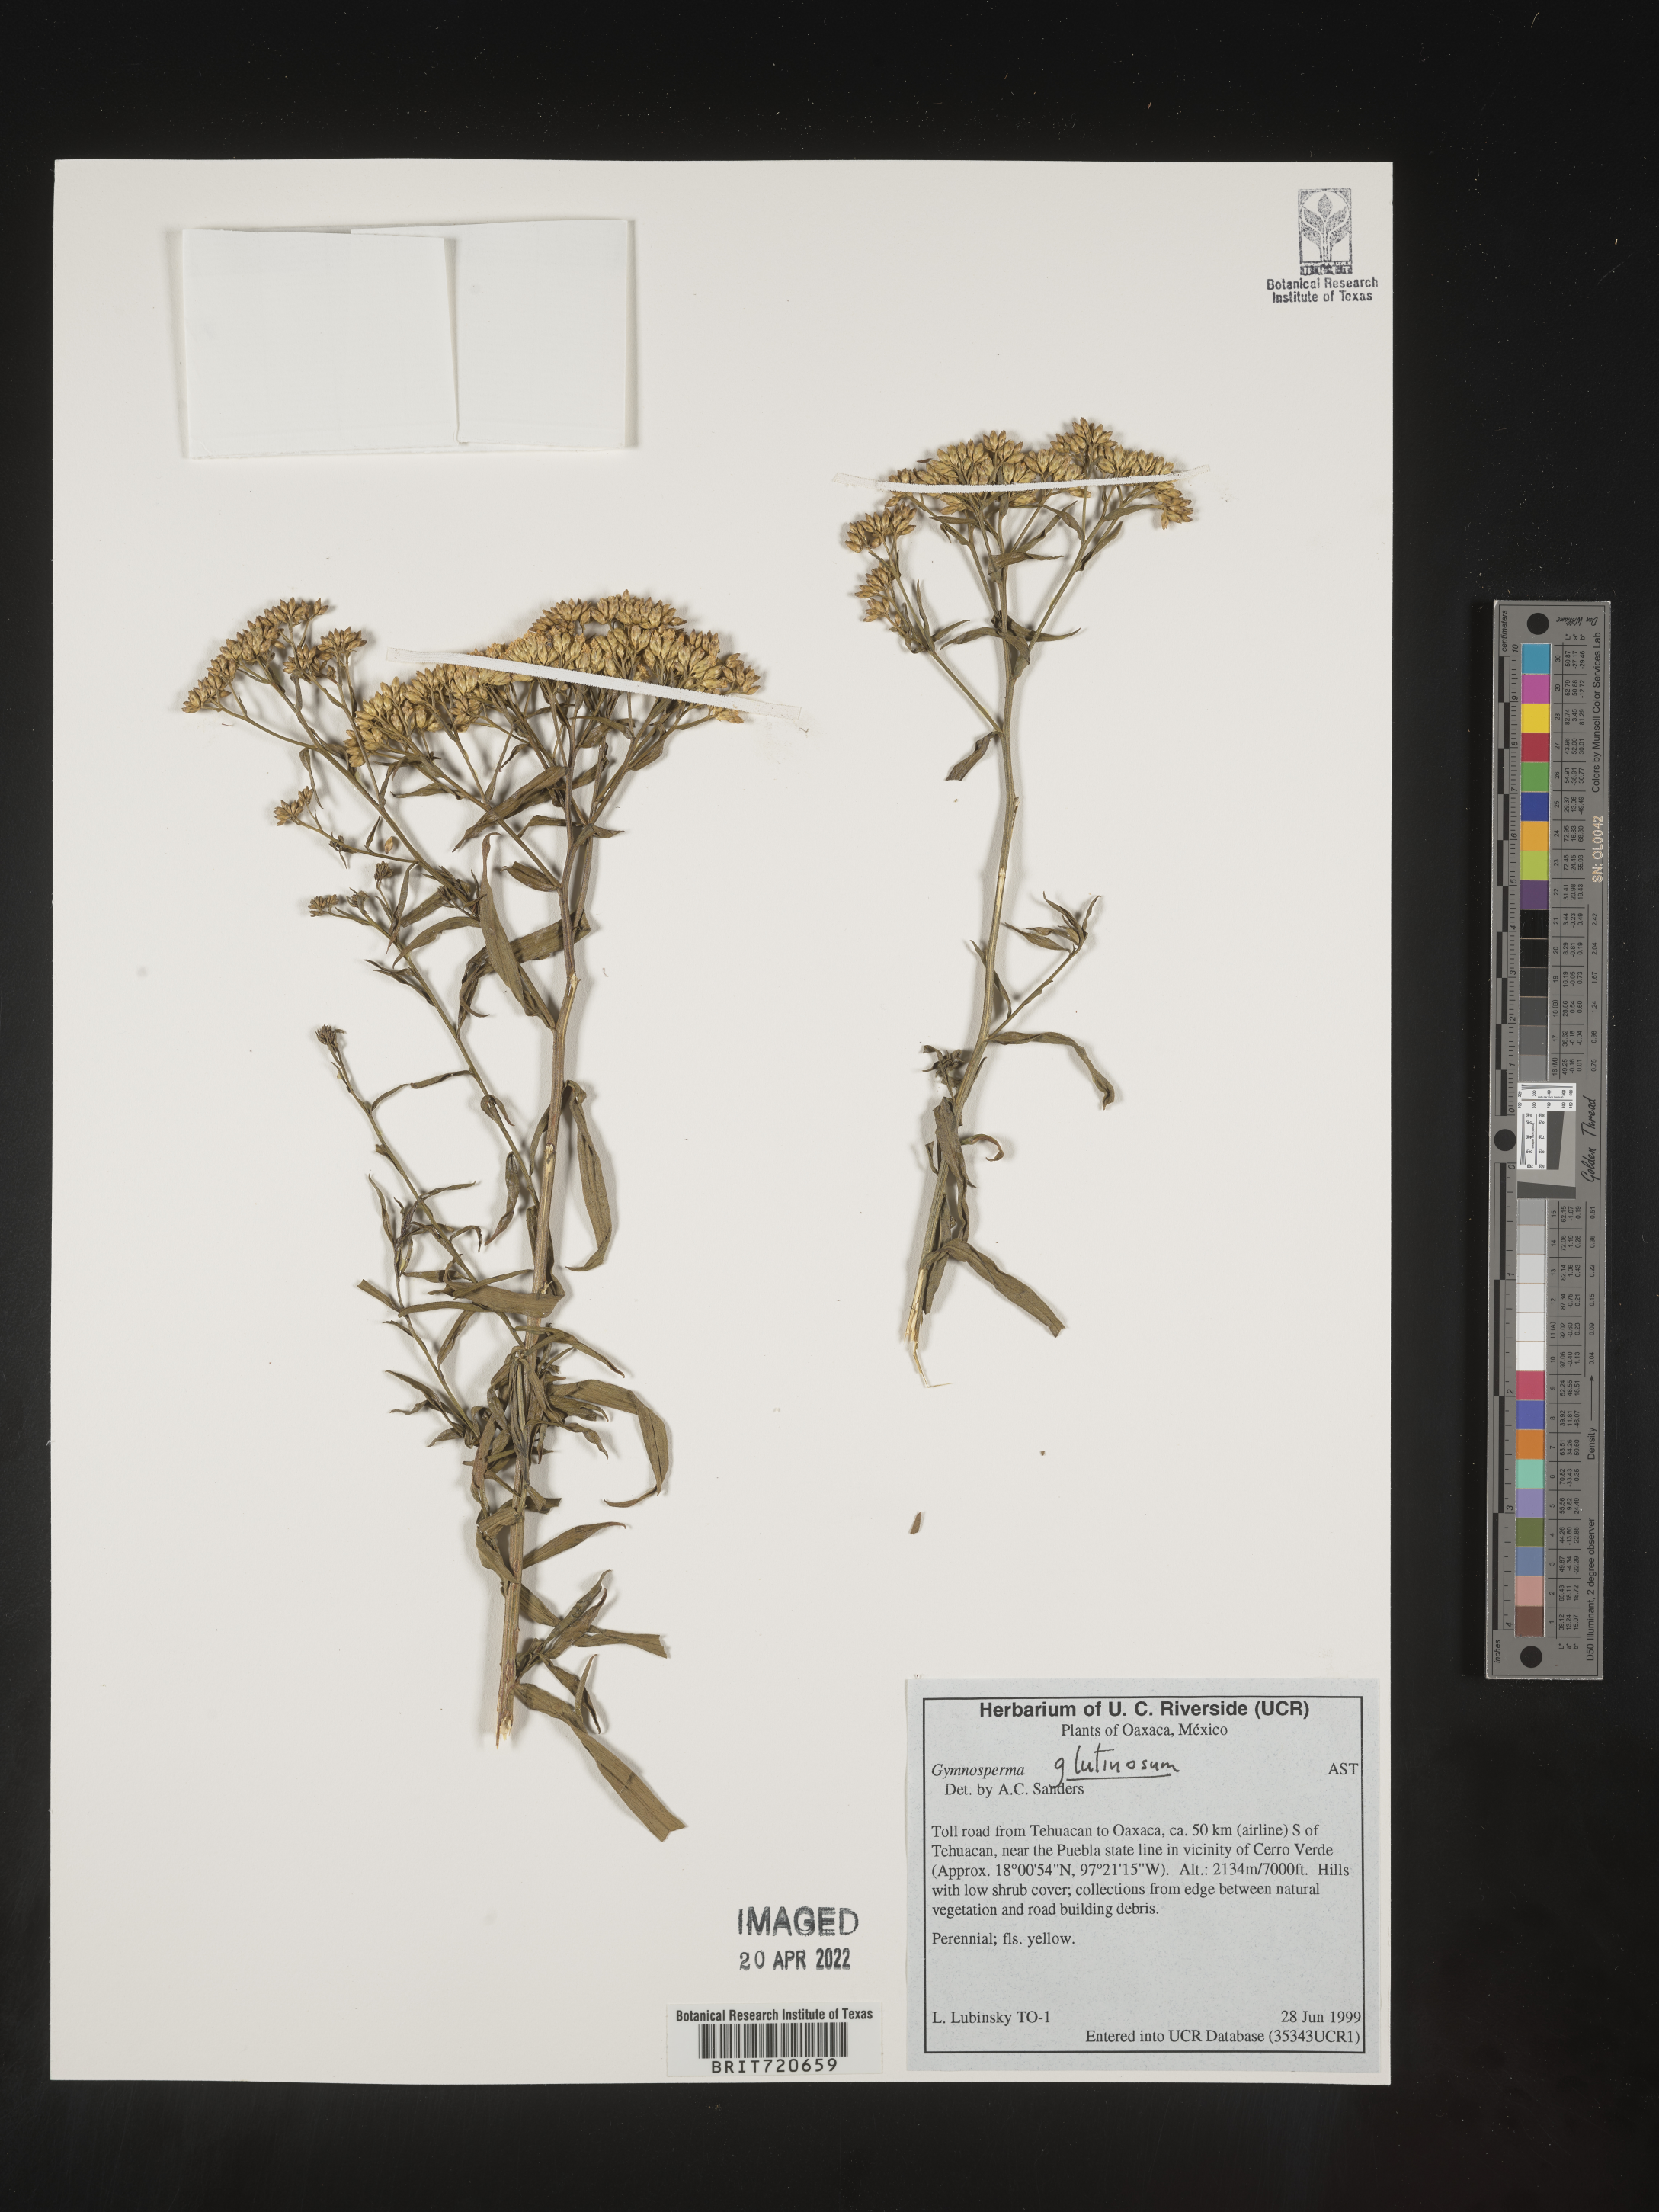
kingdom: Plantae
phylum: Tracheophyta
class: Magnoliopsida
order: Asterales
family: Asteraceae
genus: Gymnosperma
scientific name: Gymnosperma glutinosum
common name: Gumhead
